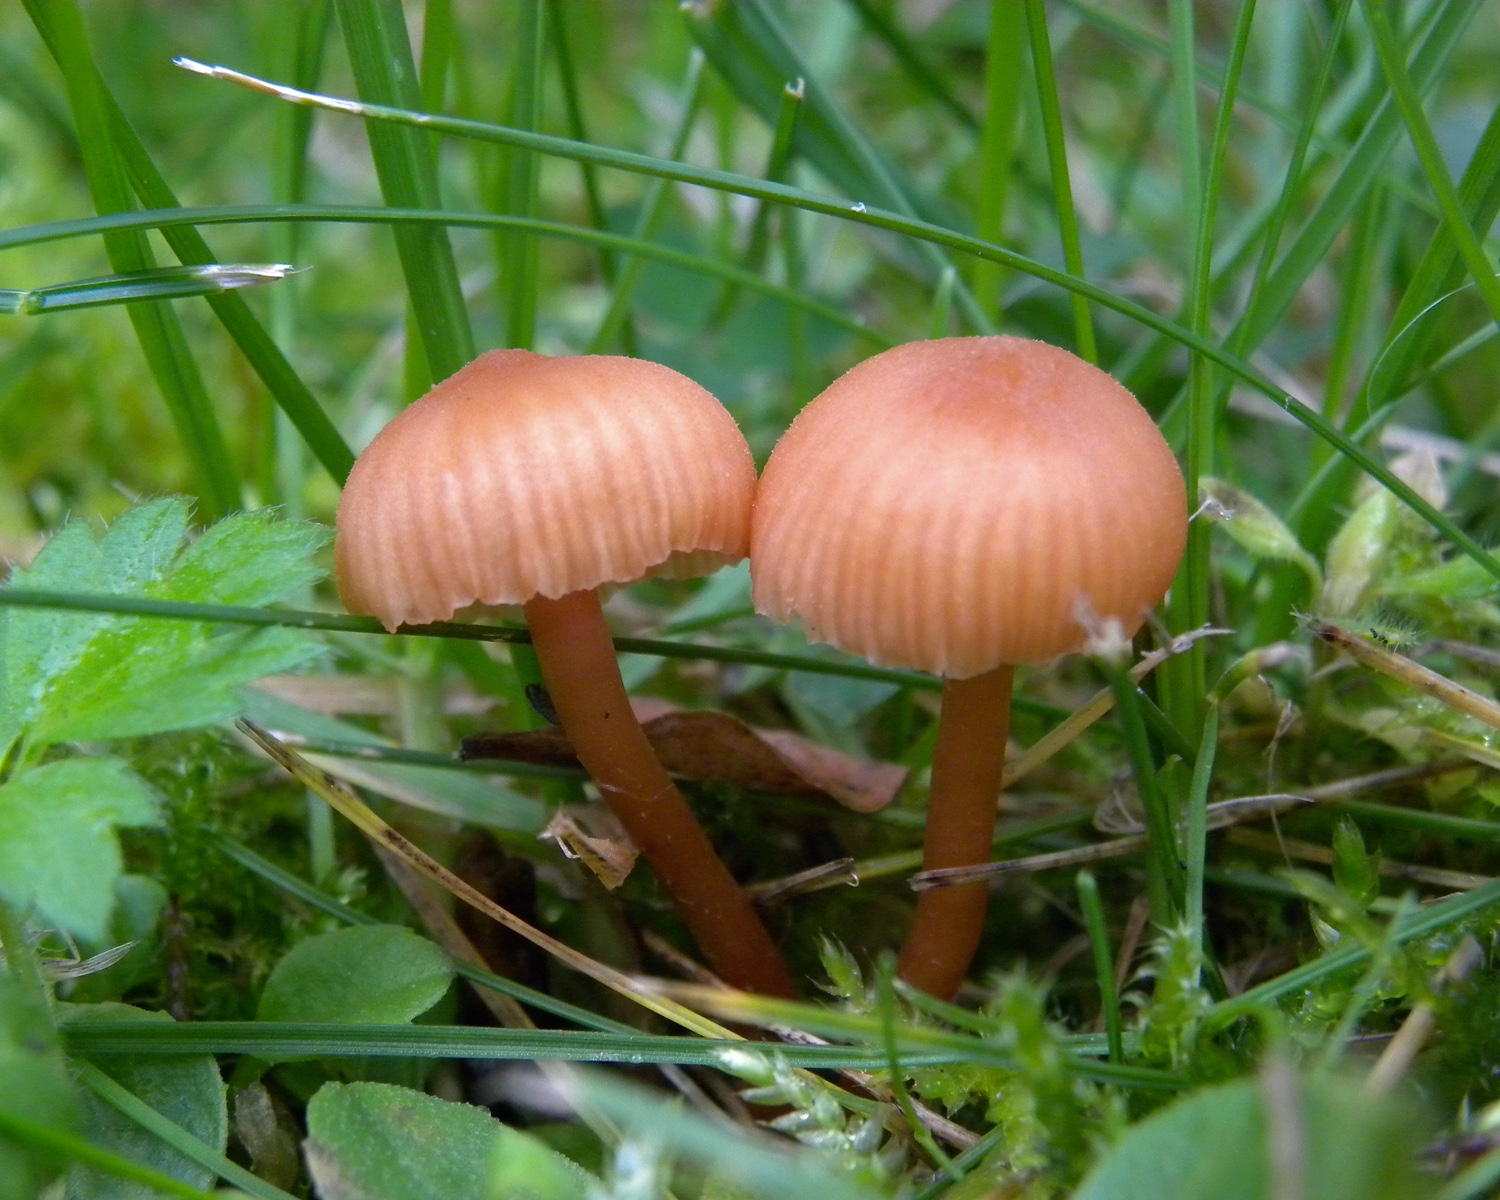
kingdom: Fungi
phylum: Basidiomycota
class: Agaricomycetes
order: Agaricales
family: Hydnangiaceae
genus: Laccaria
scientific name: Laccaria laccata
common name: rød ametysthat
